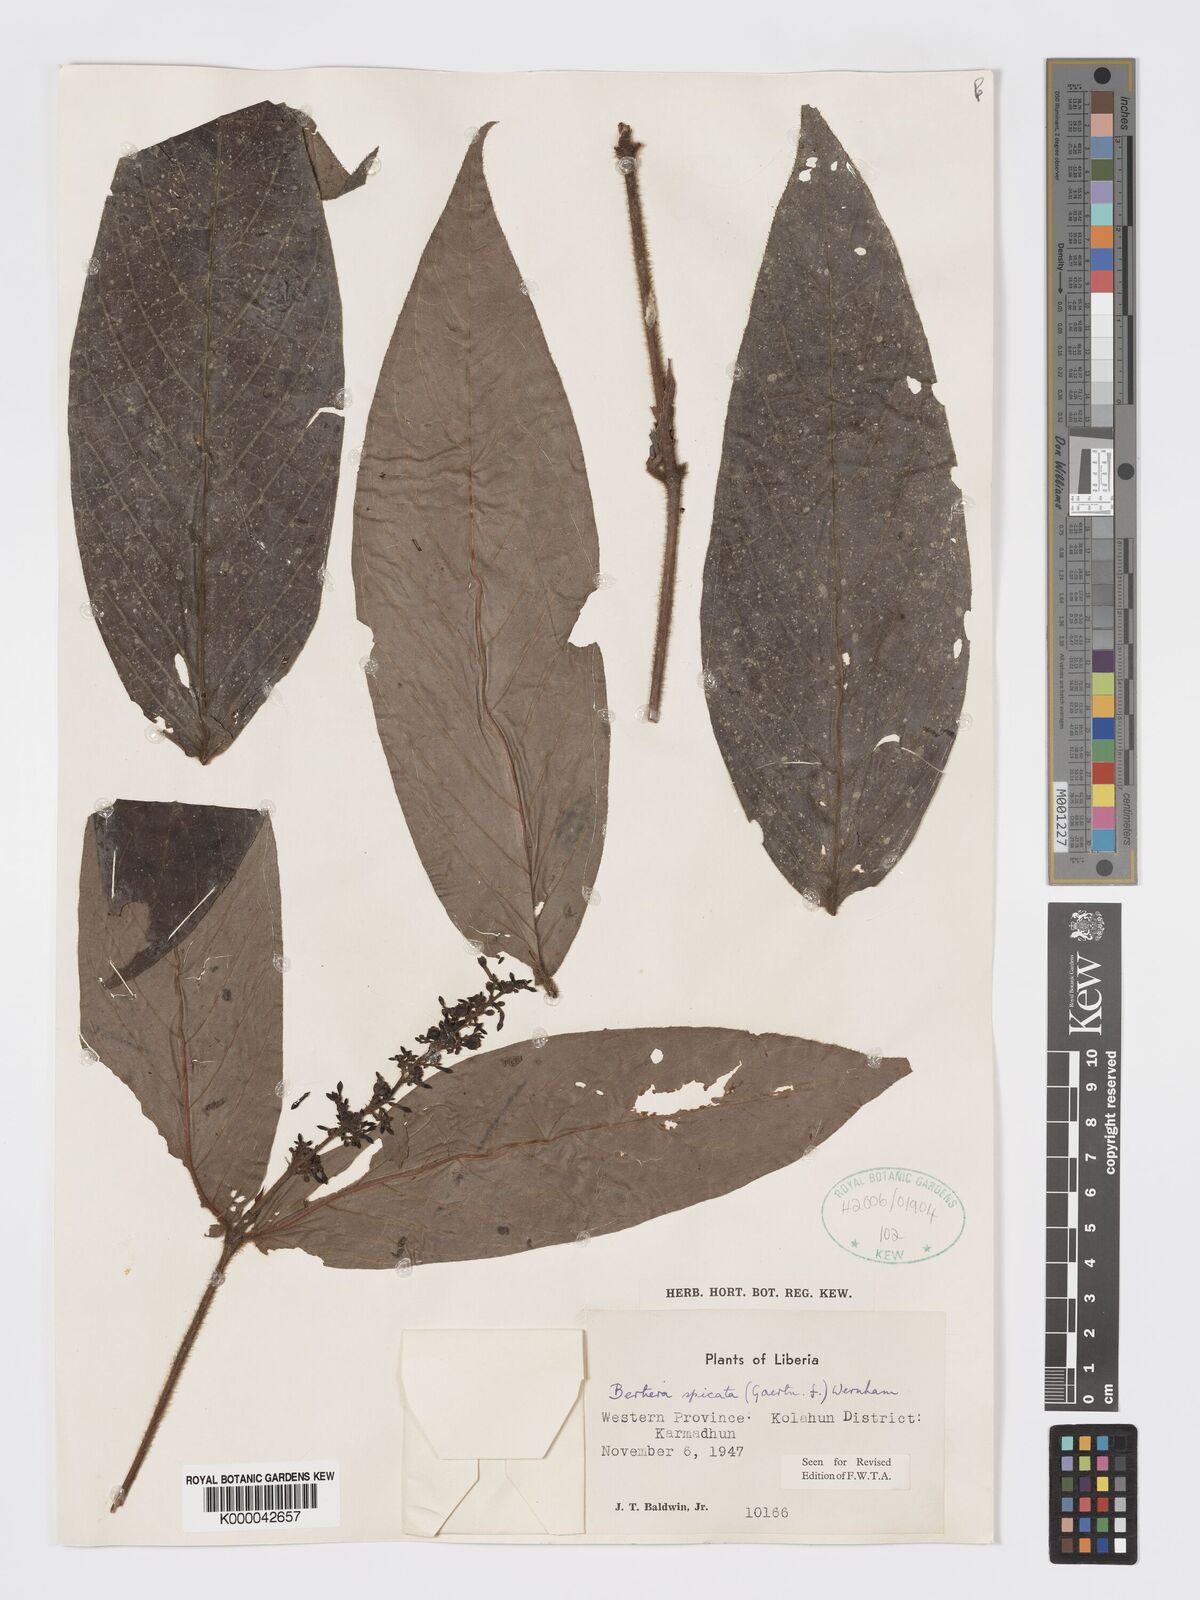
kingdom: Plantae
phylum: Tracheophyta
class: Magnoliopsida
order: Gentianales
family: Rubiaceae
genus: Bertiera
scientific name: Bertiera
